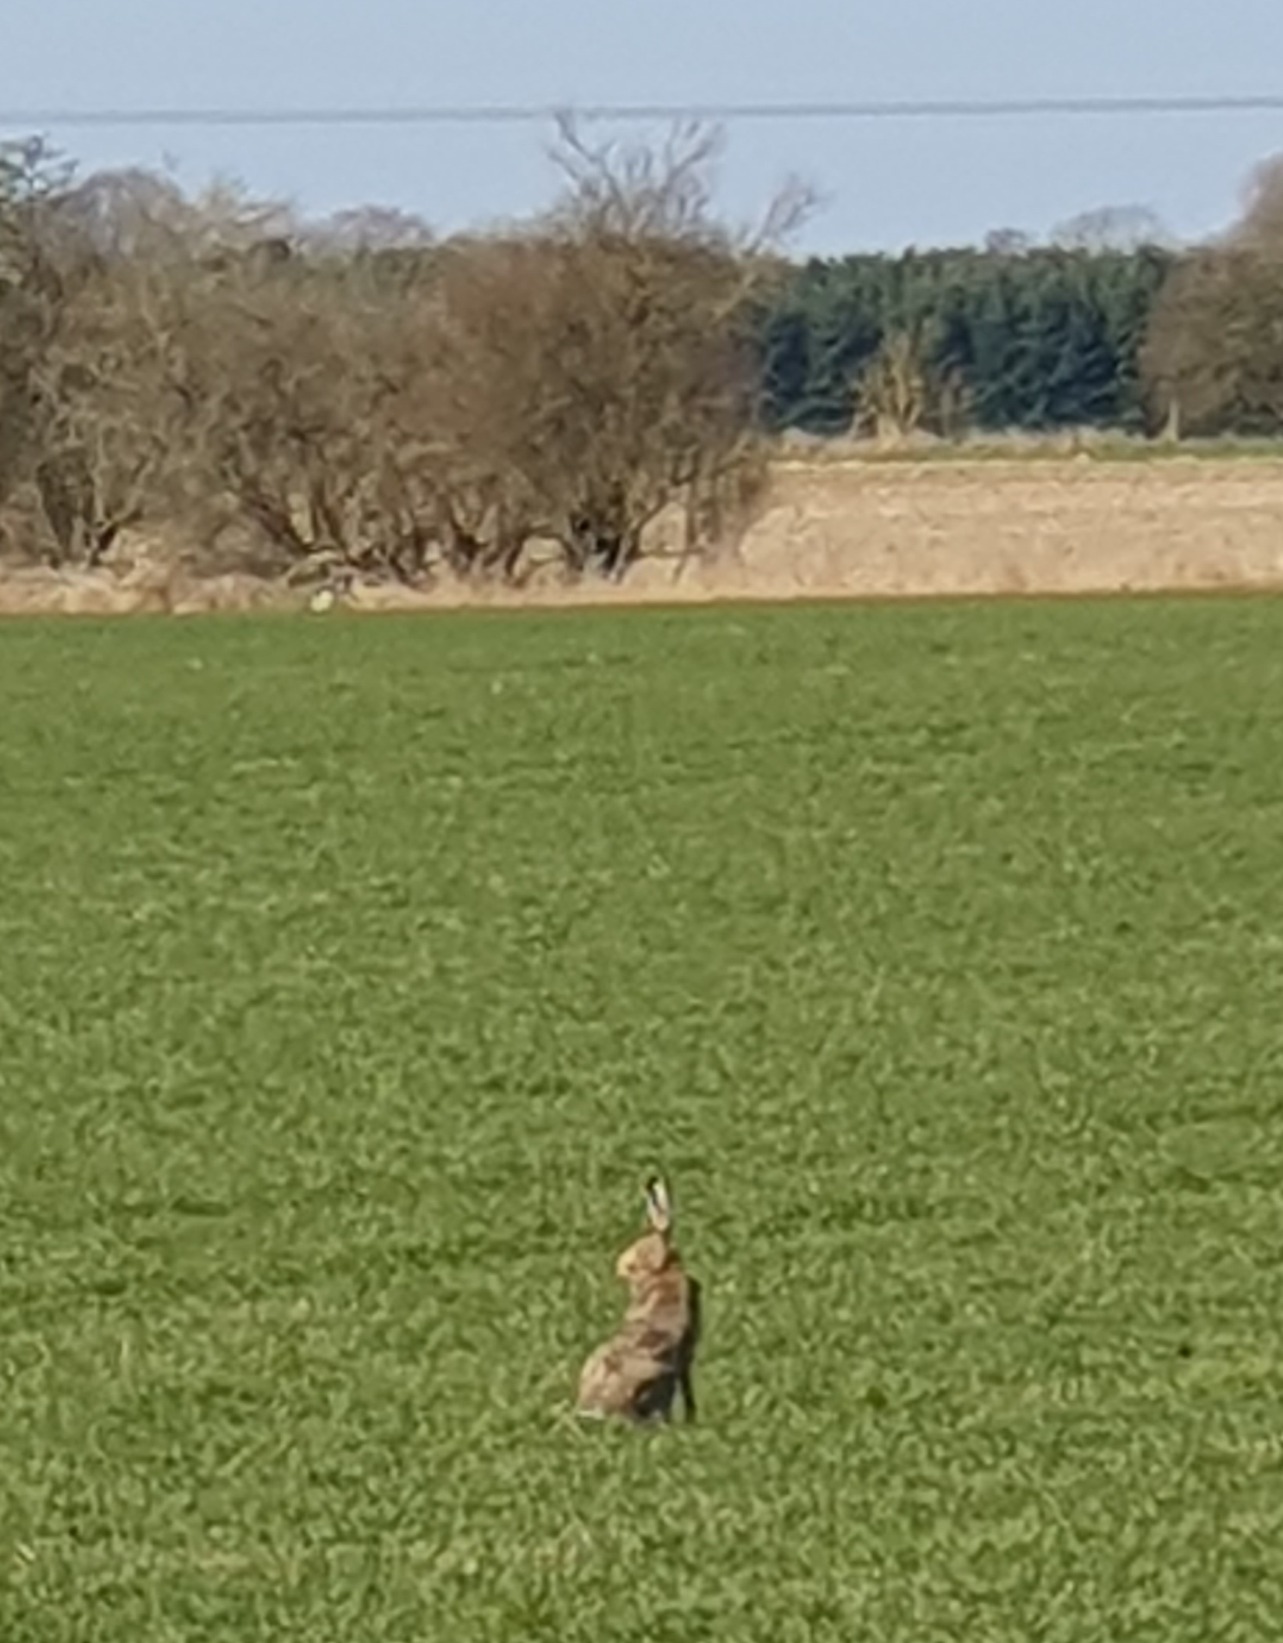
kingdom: Animalia
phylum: Chordata
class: Mammalia
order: Lagomorpha
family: Leporidae
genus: Lepus
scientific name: Lepus europaeus
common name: Hare
